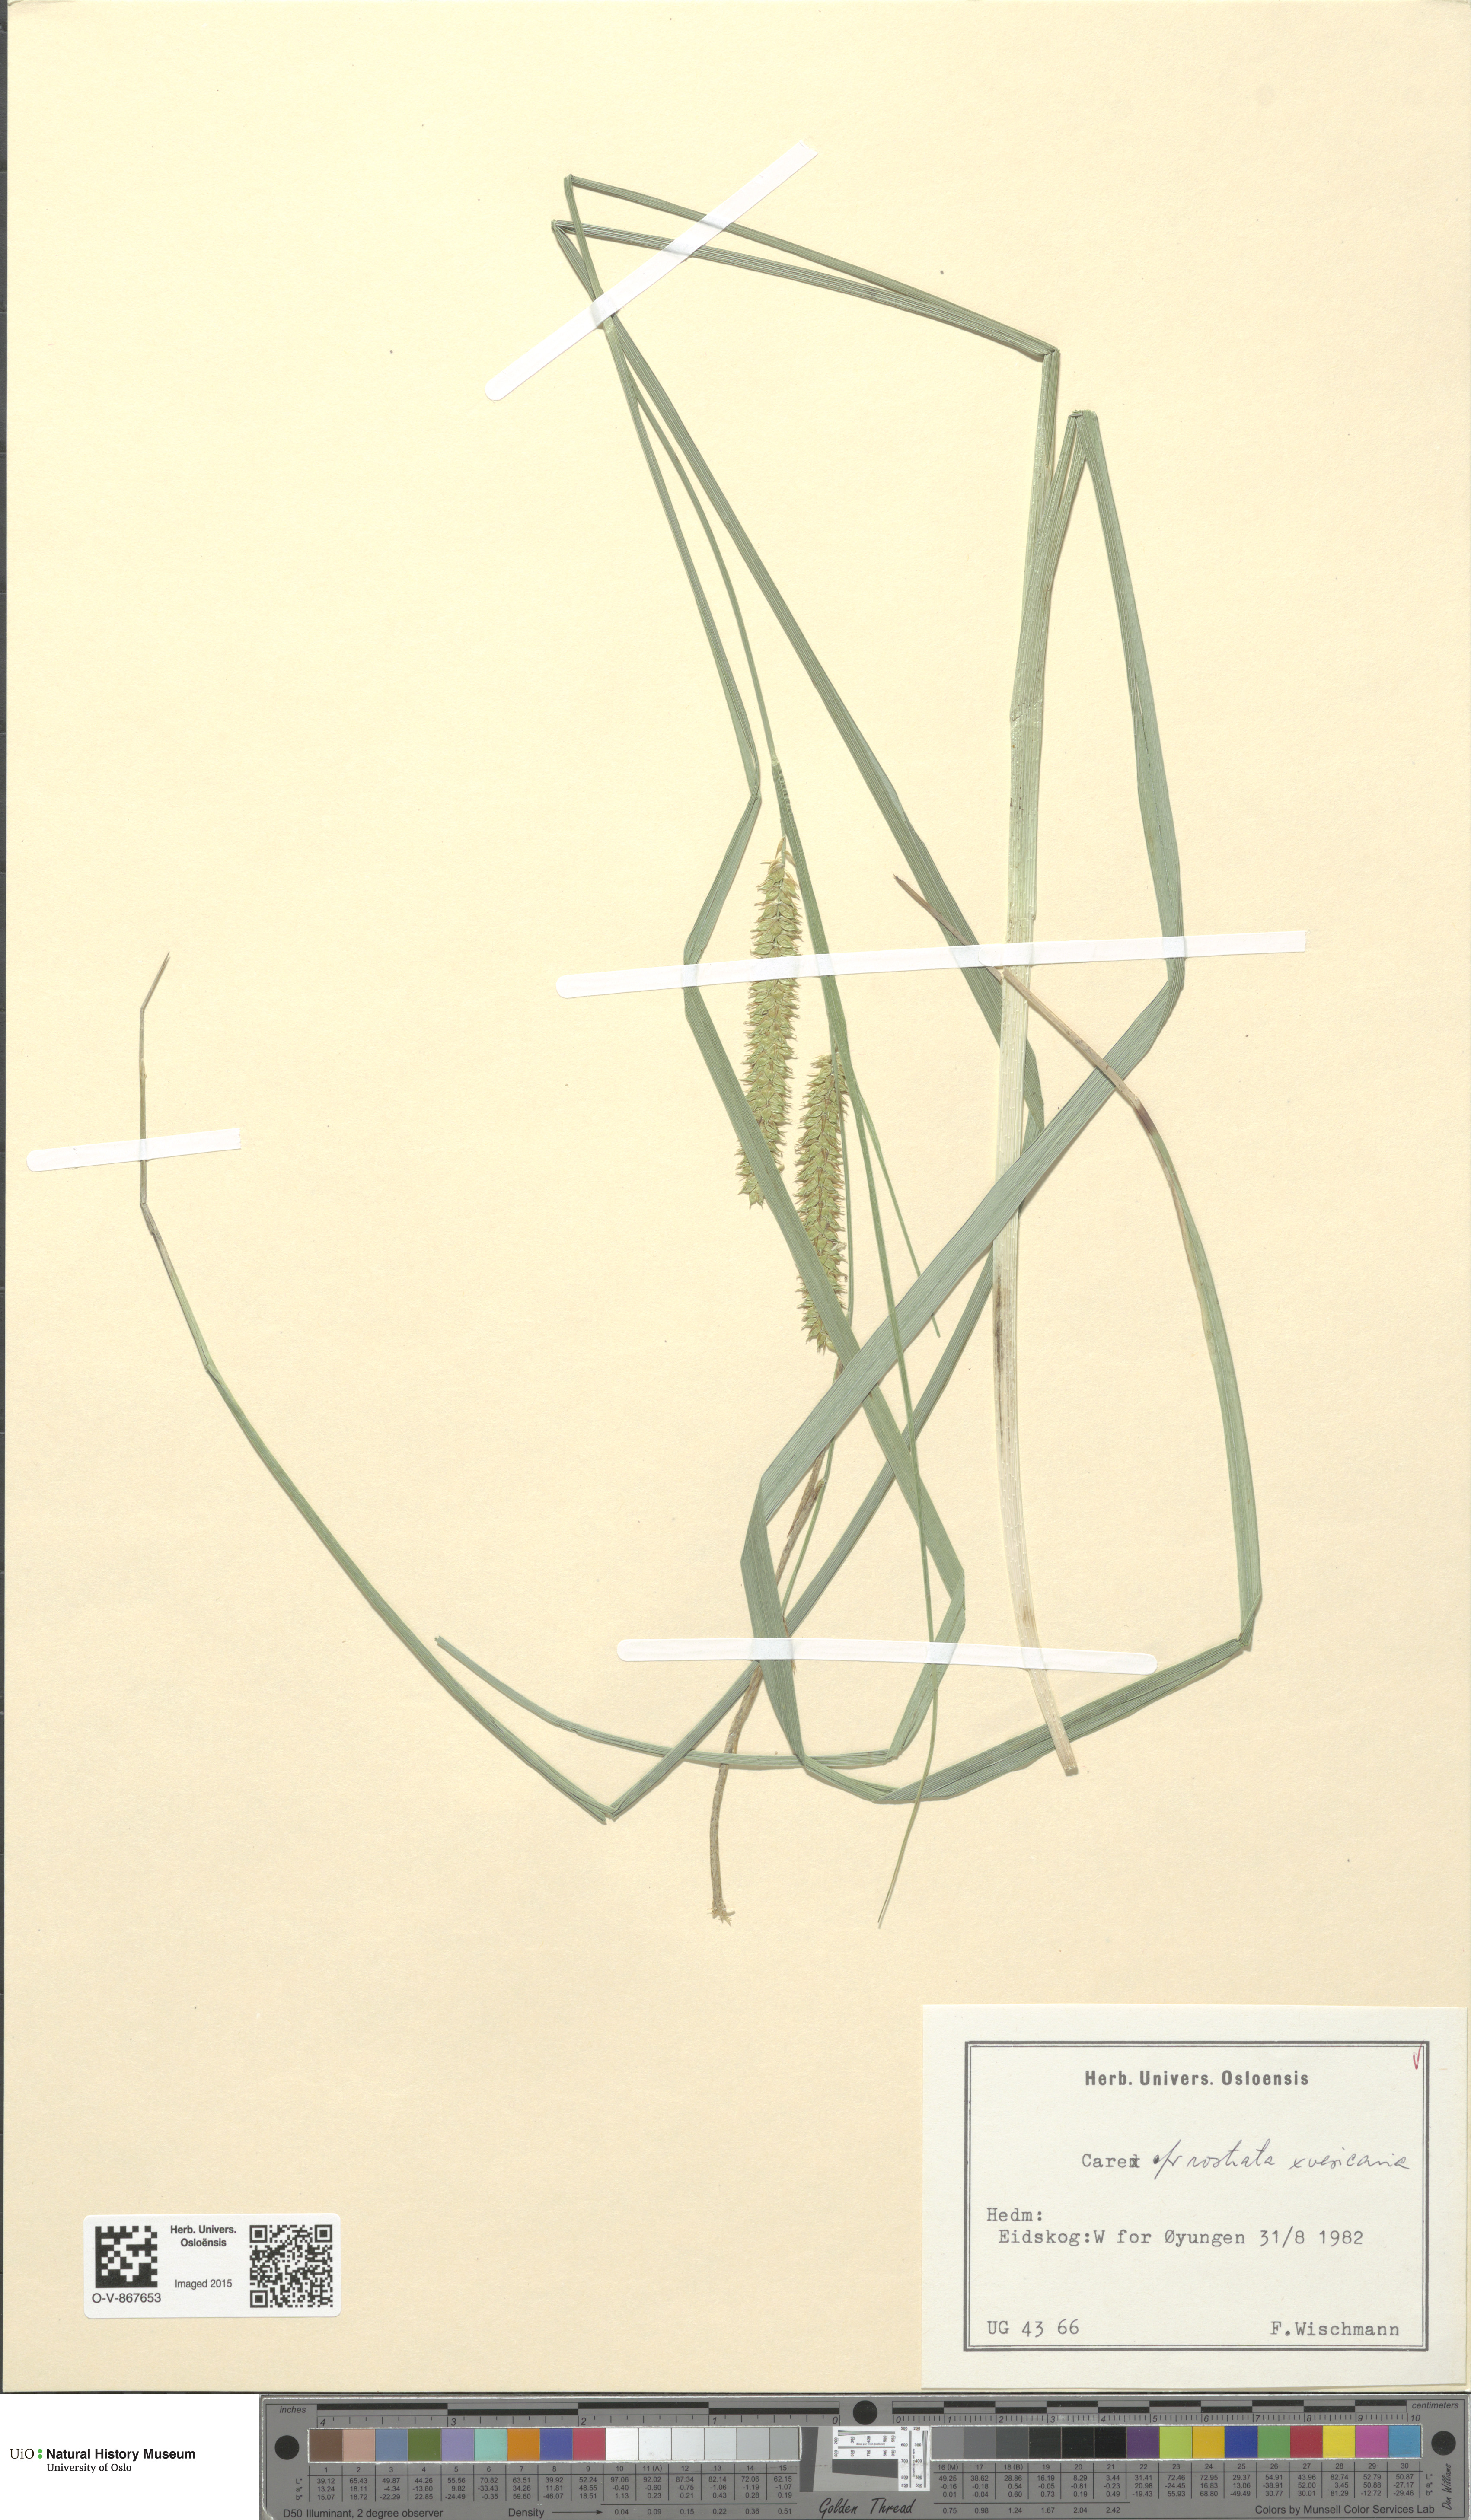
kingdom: Plantae
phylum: Tracheophyta
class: Liliopsida
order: Poales
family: Cyperaceae
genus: Carex
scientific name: Carex
